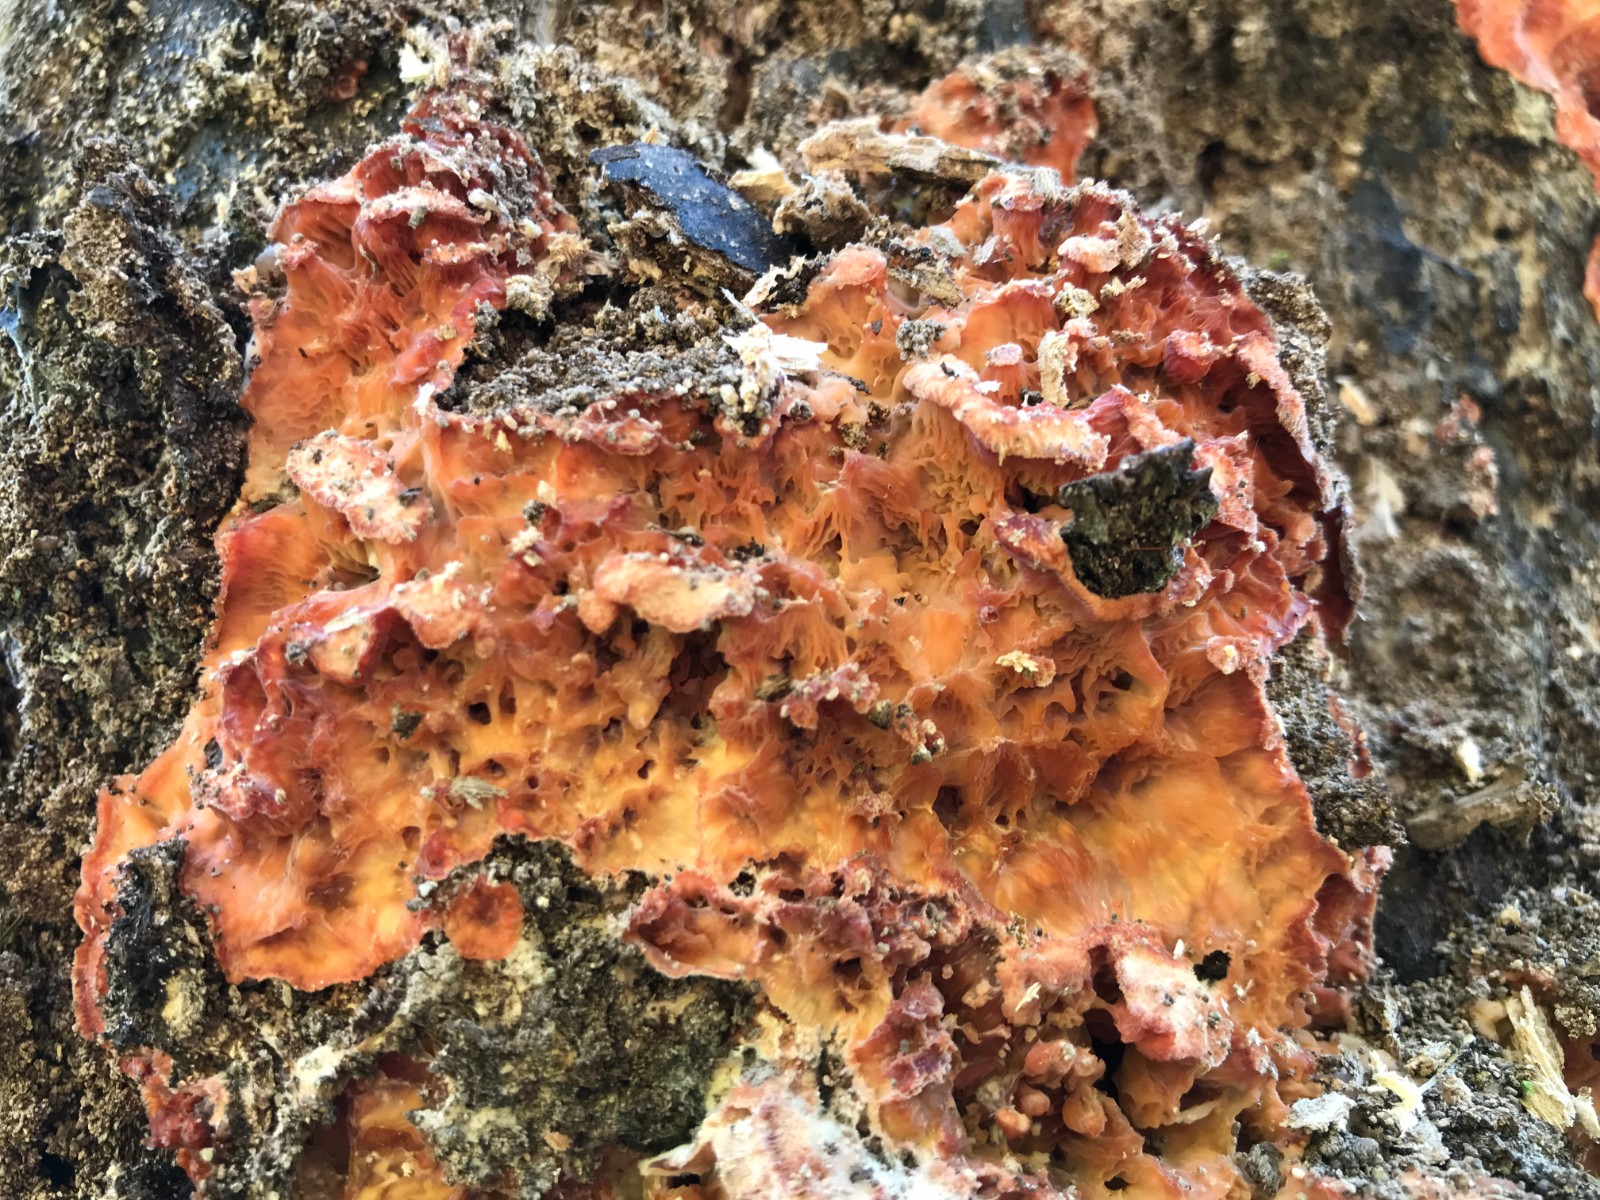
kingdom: Fungi
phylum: Basidiomycota
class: Agaricomycetes
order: Polyporales
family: Meruliaceae
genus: Phlebia
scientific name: Phlebia tremellosa
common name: bævrende åresvamp
